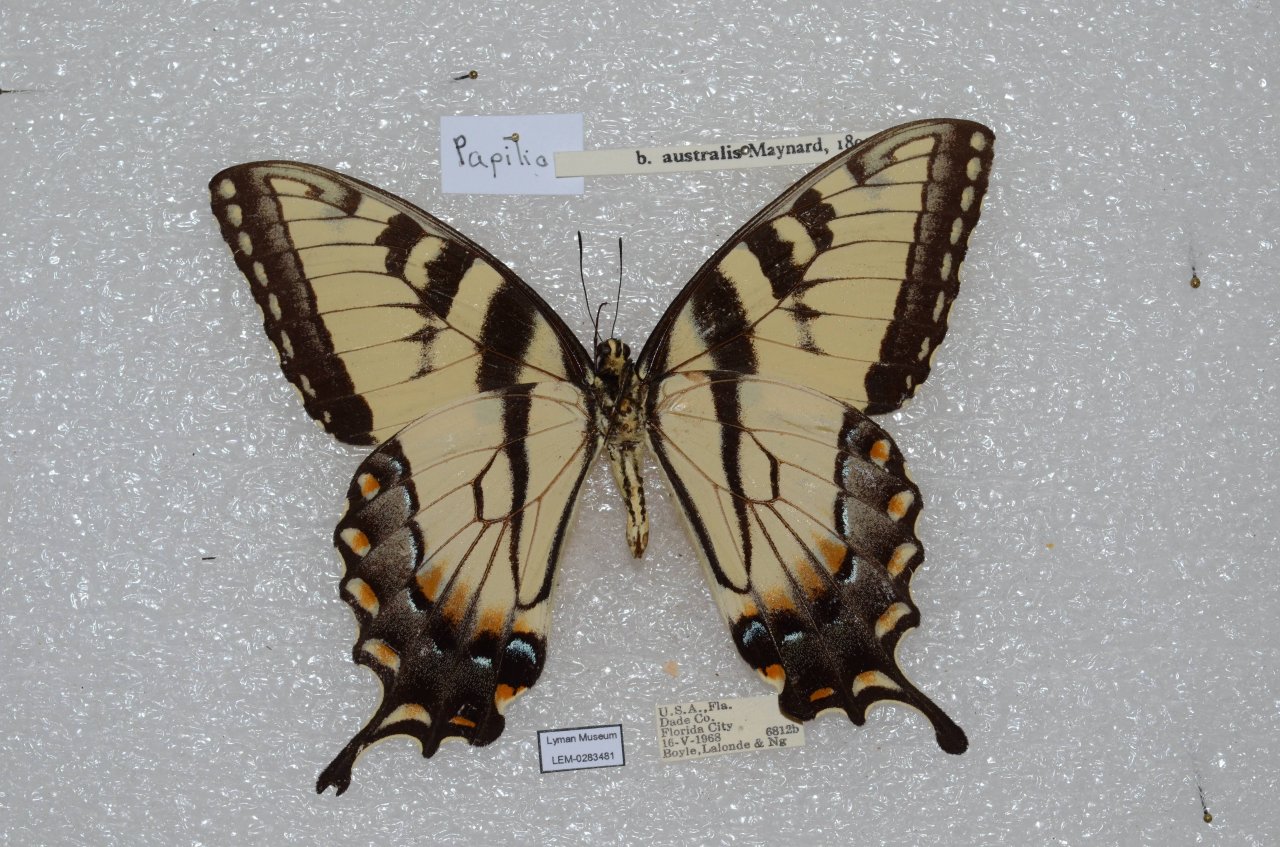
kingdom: Animalia
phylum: Arthropoda
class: Insecta
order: Lepidoptera
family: Papilionidae
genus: Pterourus
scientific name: Pterourus glaucus
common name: Eastern Tiger Swallowtail
